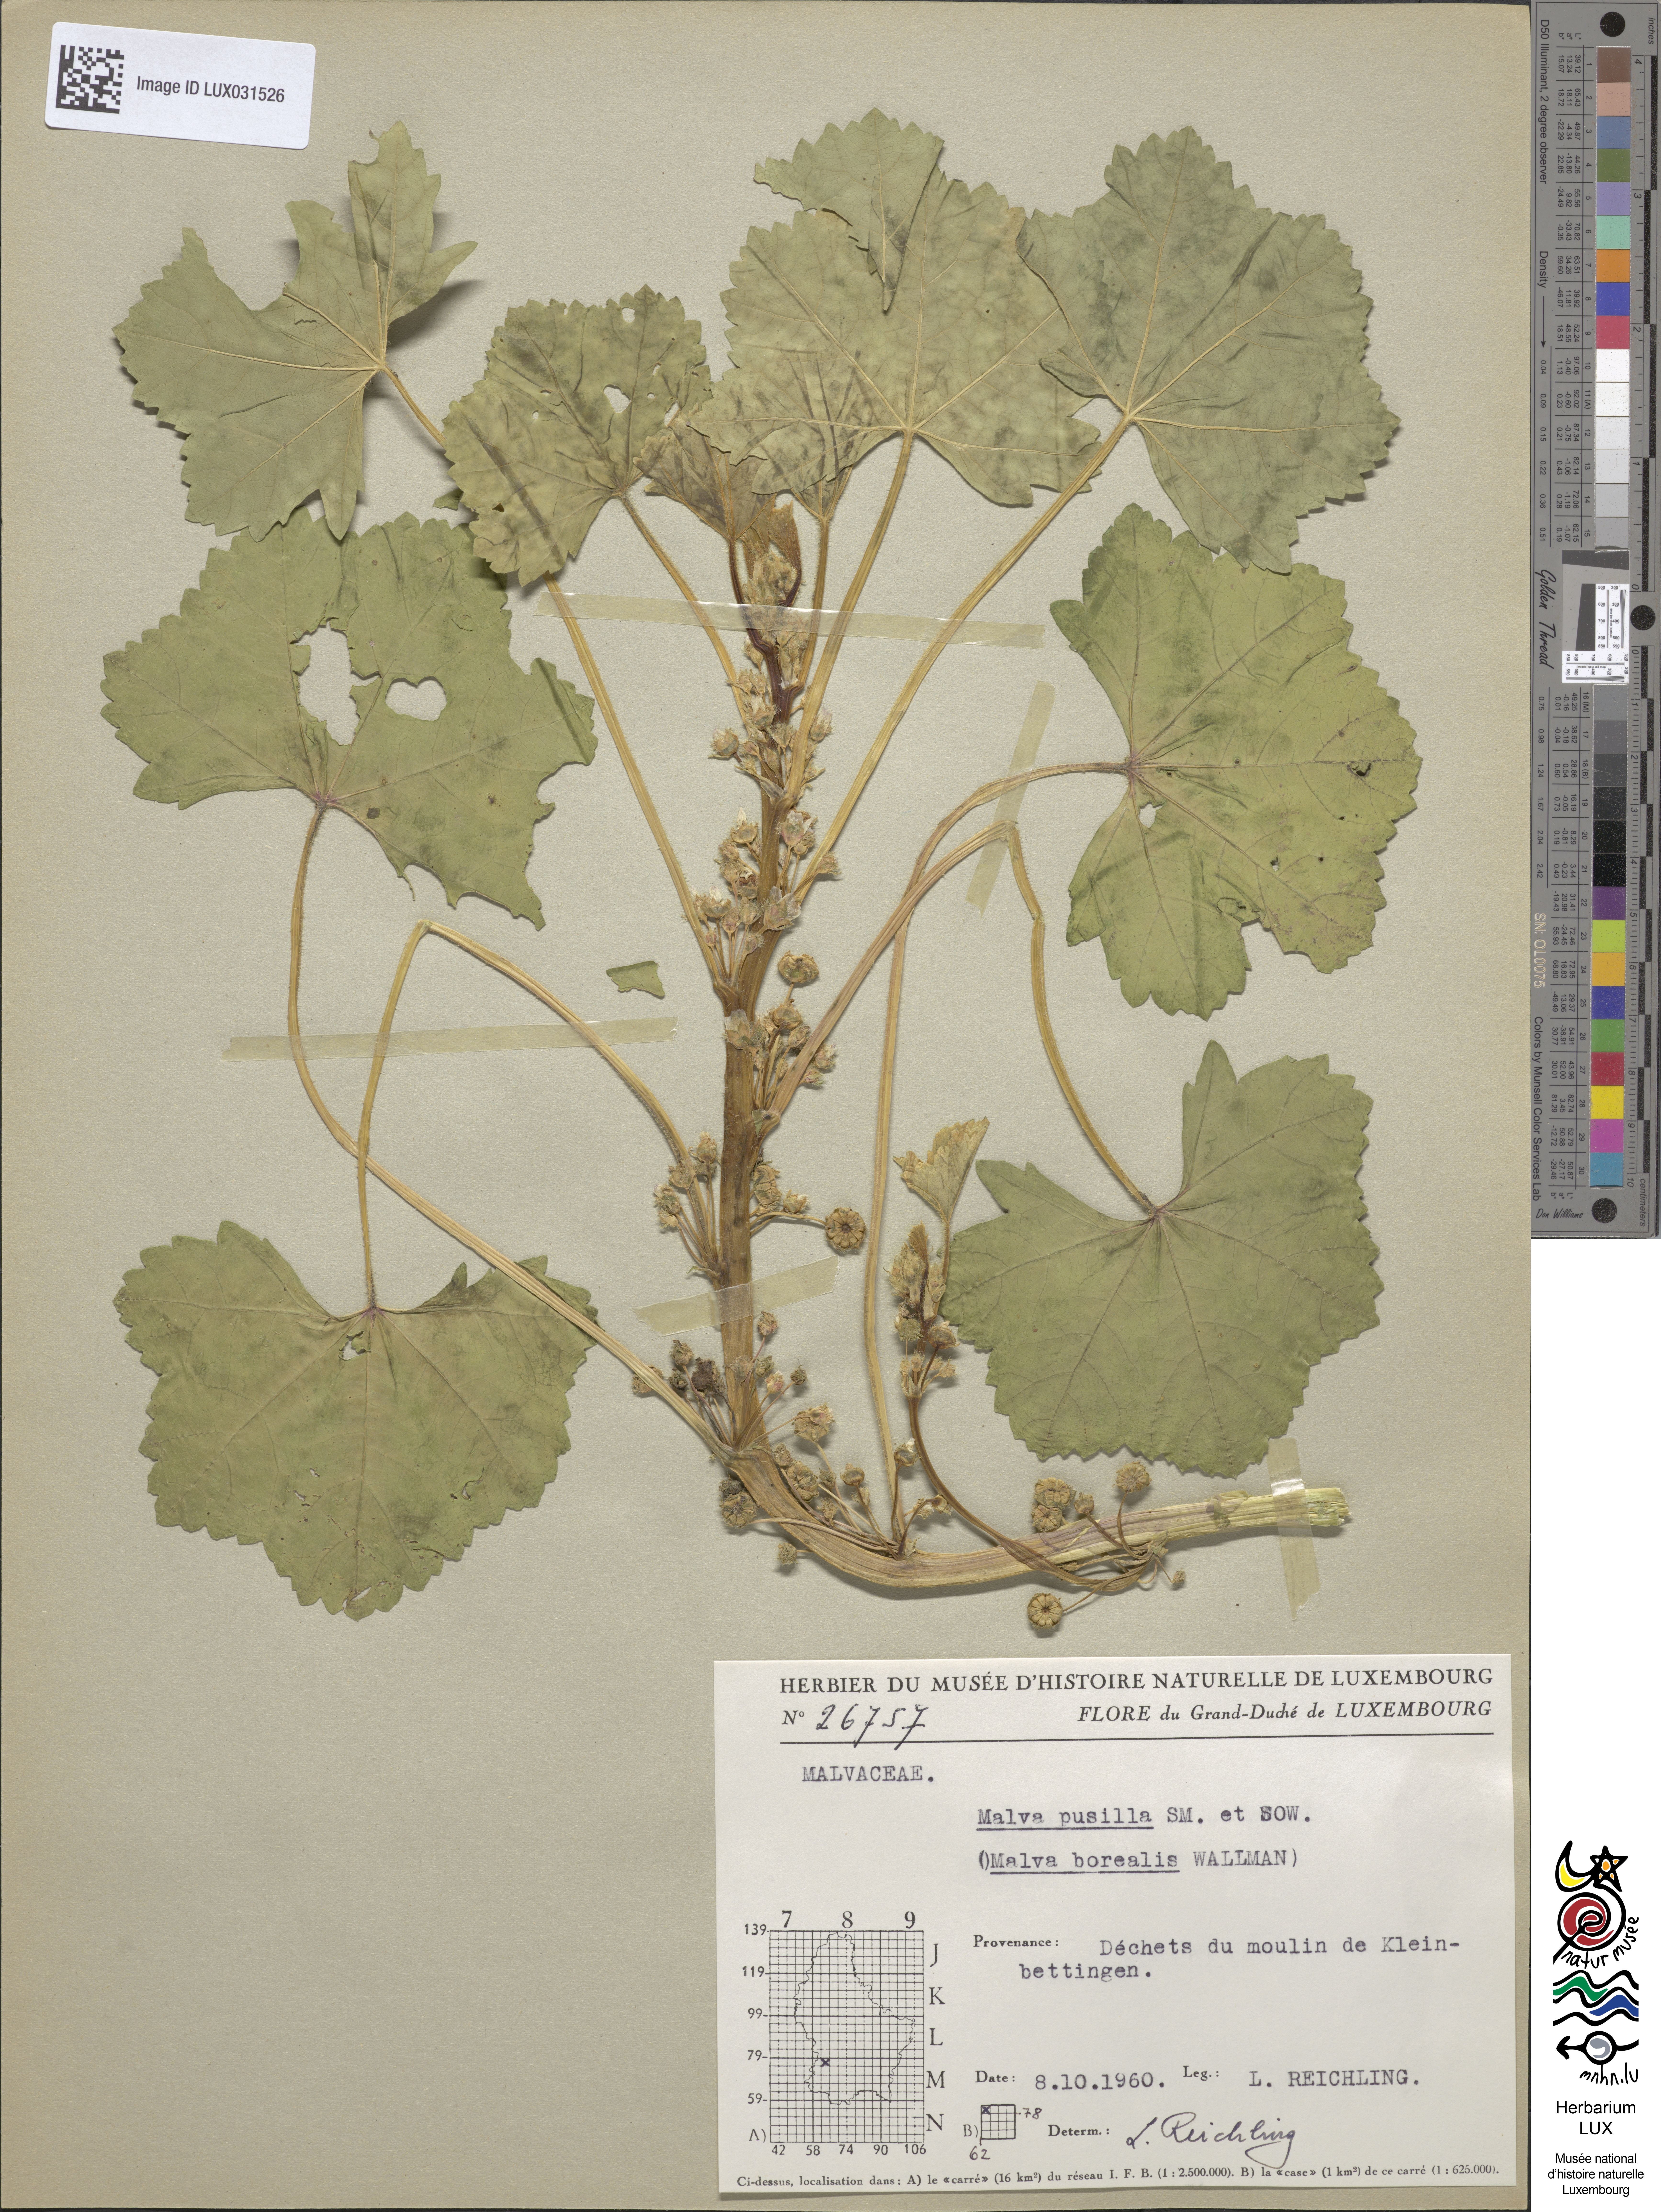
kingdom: Plantae
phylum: Tracheophyta
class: Magnoliopsida
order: Malvales
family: Malvaceae
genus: Malva
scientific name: Malva pusilla
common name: Small mallow
